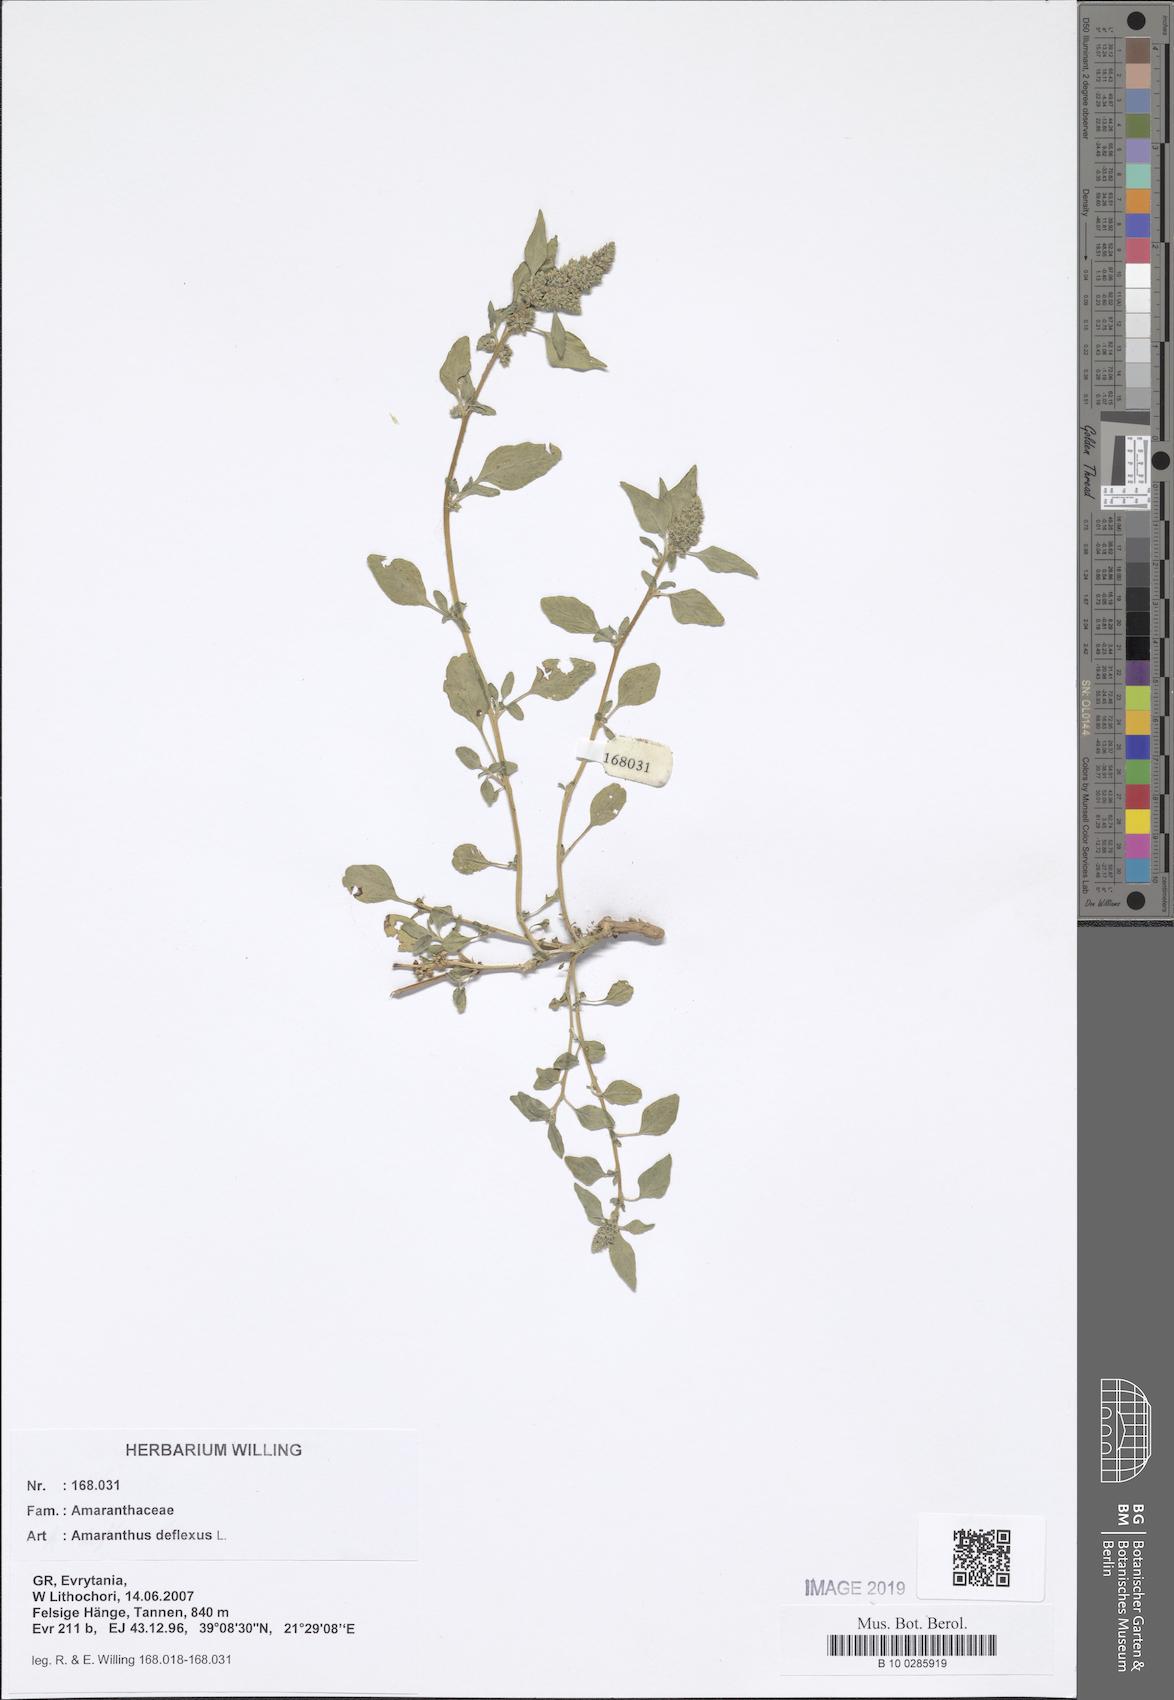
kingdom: Plantae
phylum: Tracheophyta
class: Magnoliopsida
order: Caryophyllales
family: Amaranthaceae
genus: Amaranthus
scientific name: Amaranthus deflexus
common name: Perennial pigweed
